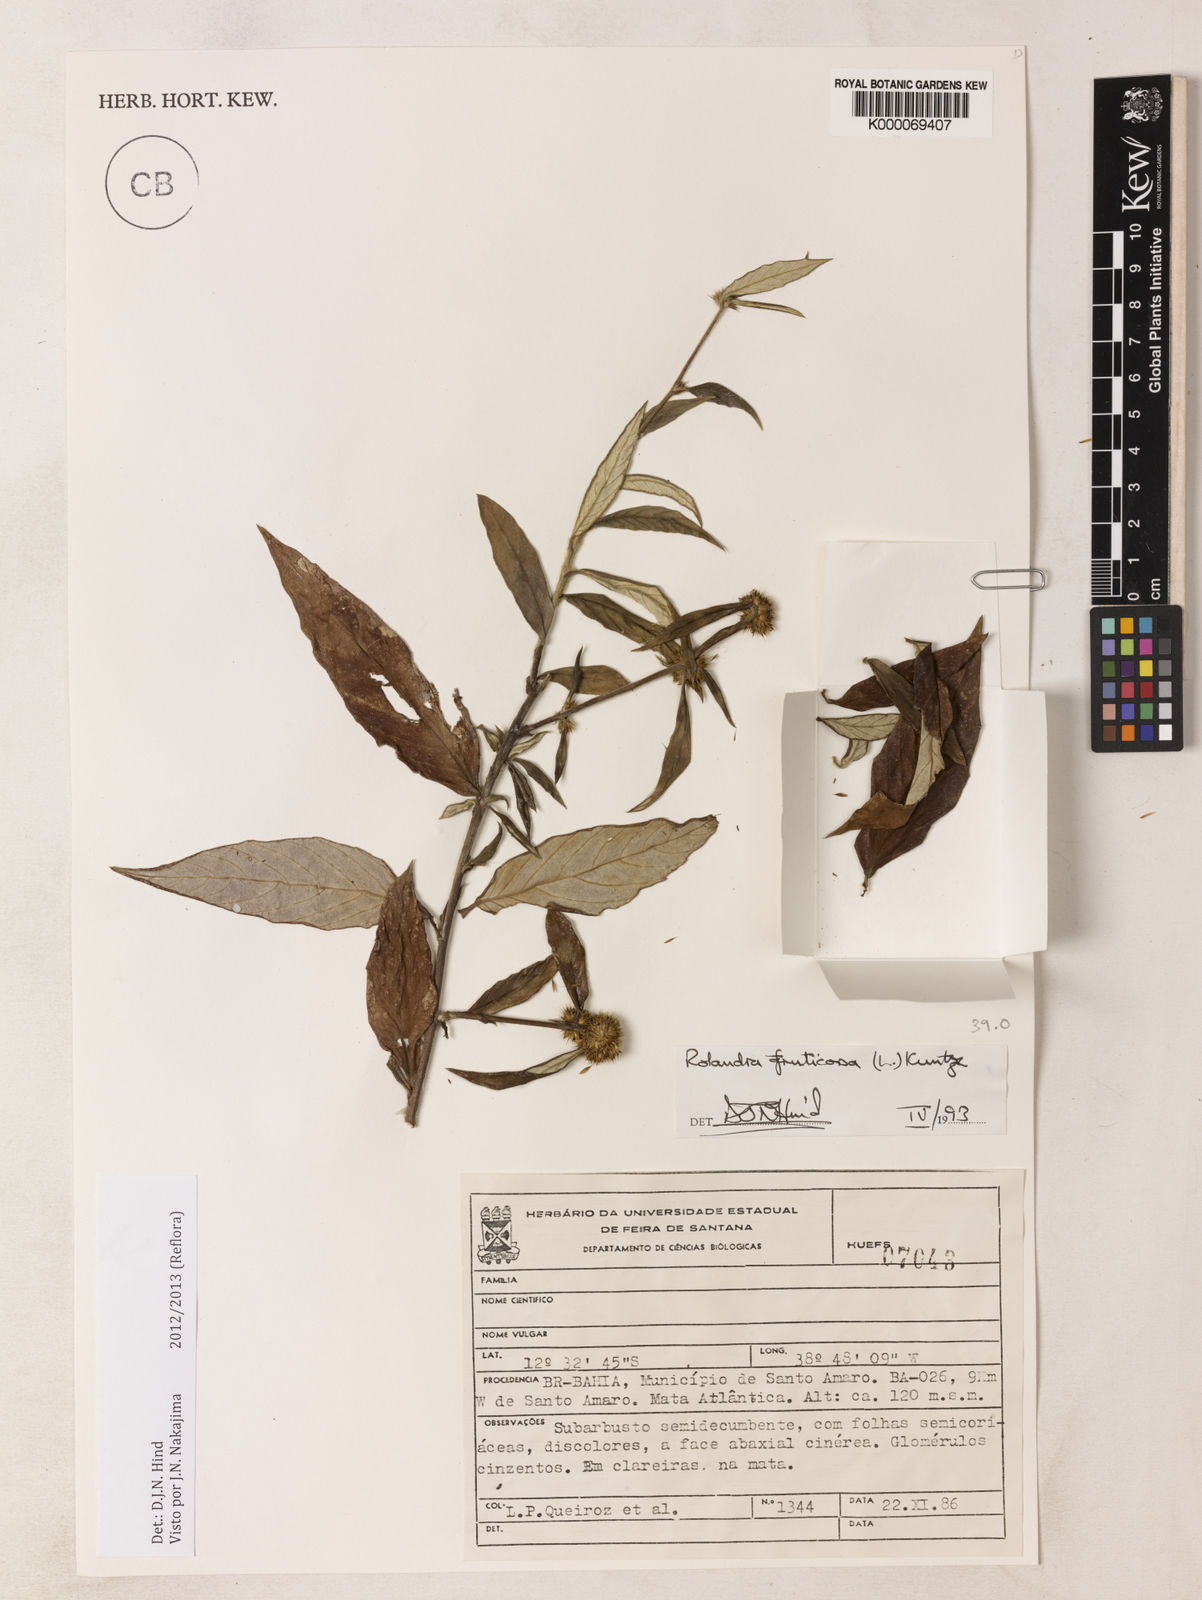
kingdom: Plantae
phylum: Tracheophyta
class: Magnoliopsida
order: Asterales
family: Asteraceae
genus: Rolandra
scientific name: Rolandra fruticosa
